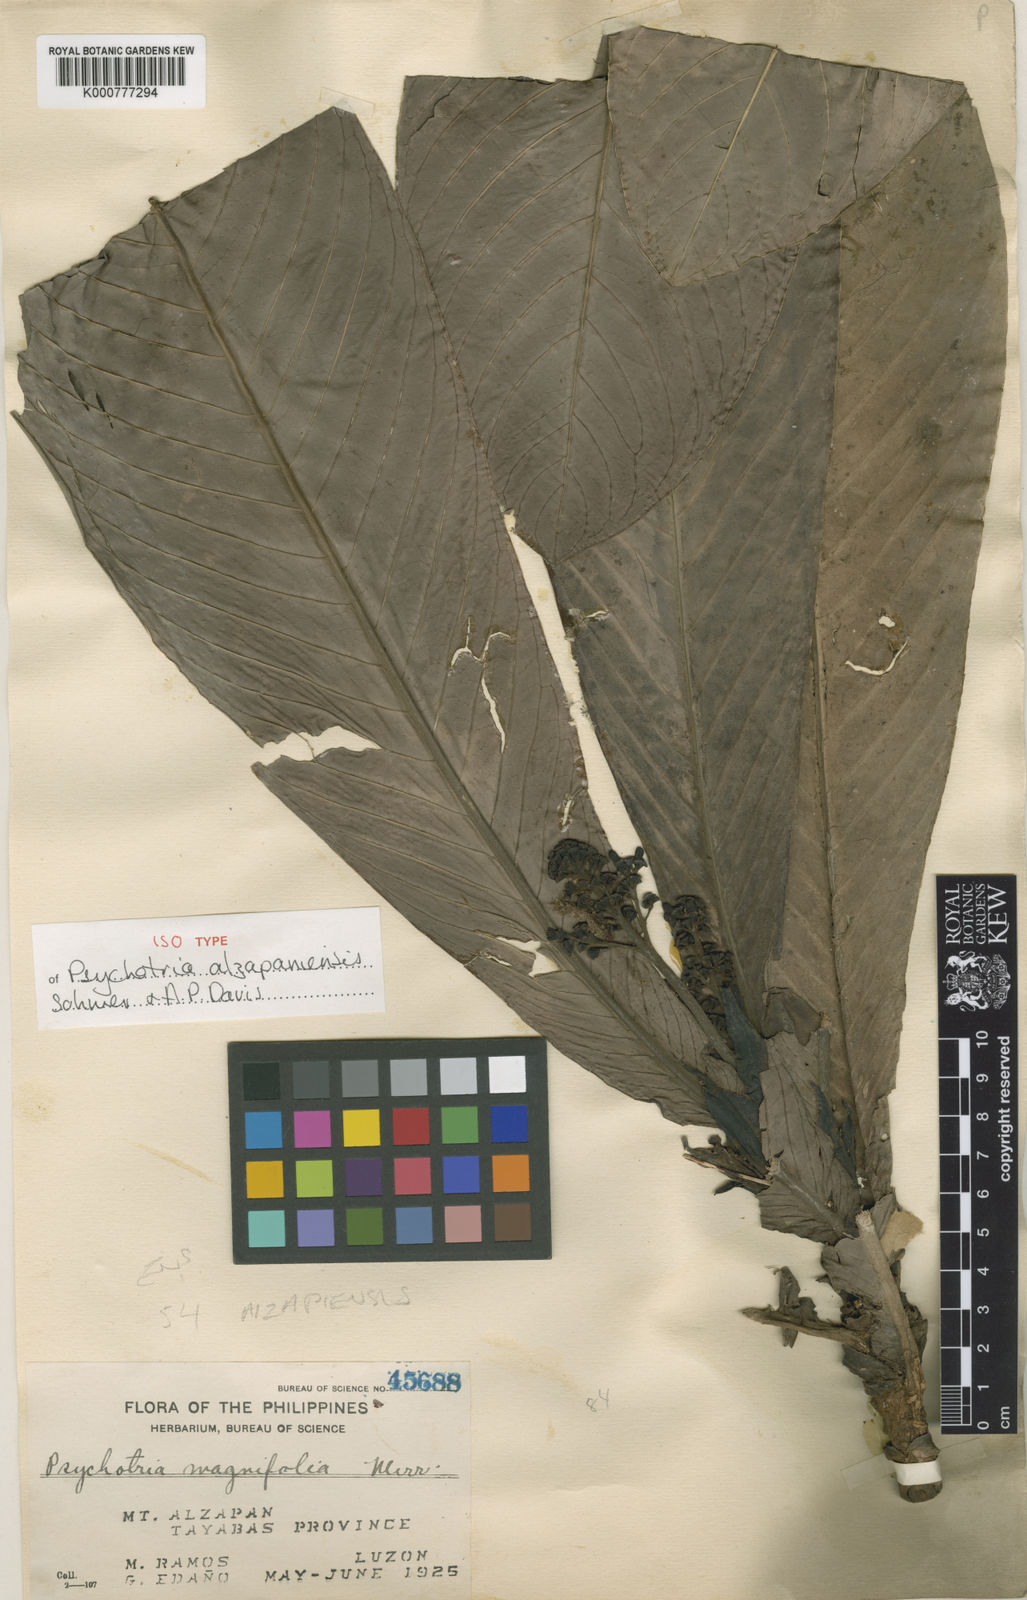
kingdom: Plantae
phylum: Tracheophyta
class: Magnoliopsida
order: Gentianales
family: Rubiaceae
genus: Psychotria
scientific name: Psychotria alzapaniensis
